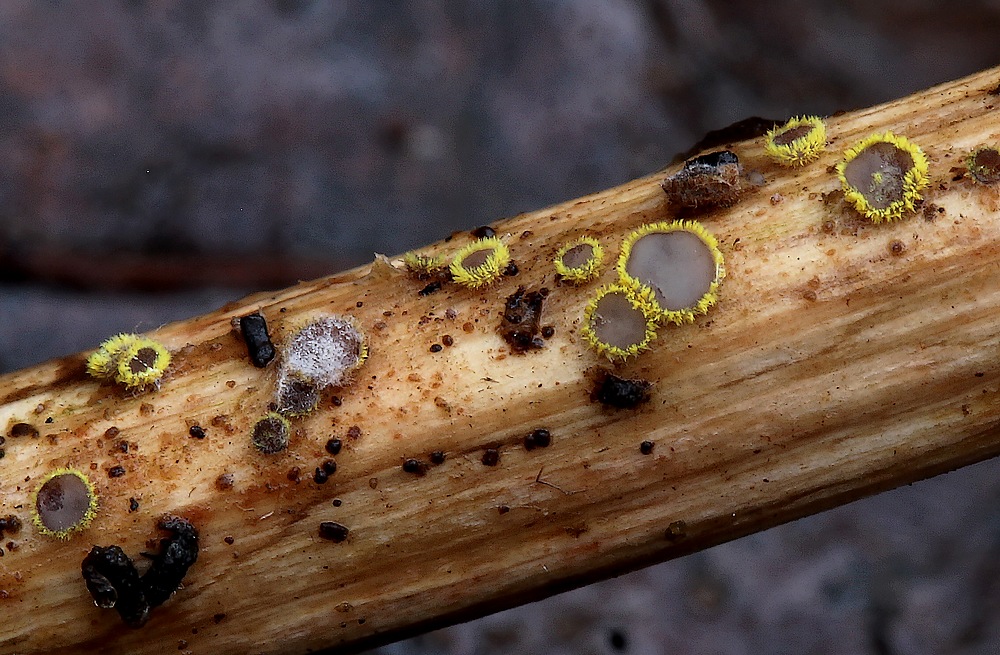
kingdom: Fungi
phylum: Ascomycota
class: Leotiomycetes
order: Helotiales
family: Lachnaceae
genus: Lachnum
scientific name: Lachnum sulphureum
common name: svovlhåret frynseskive
